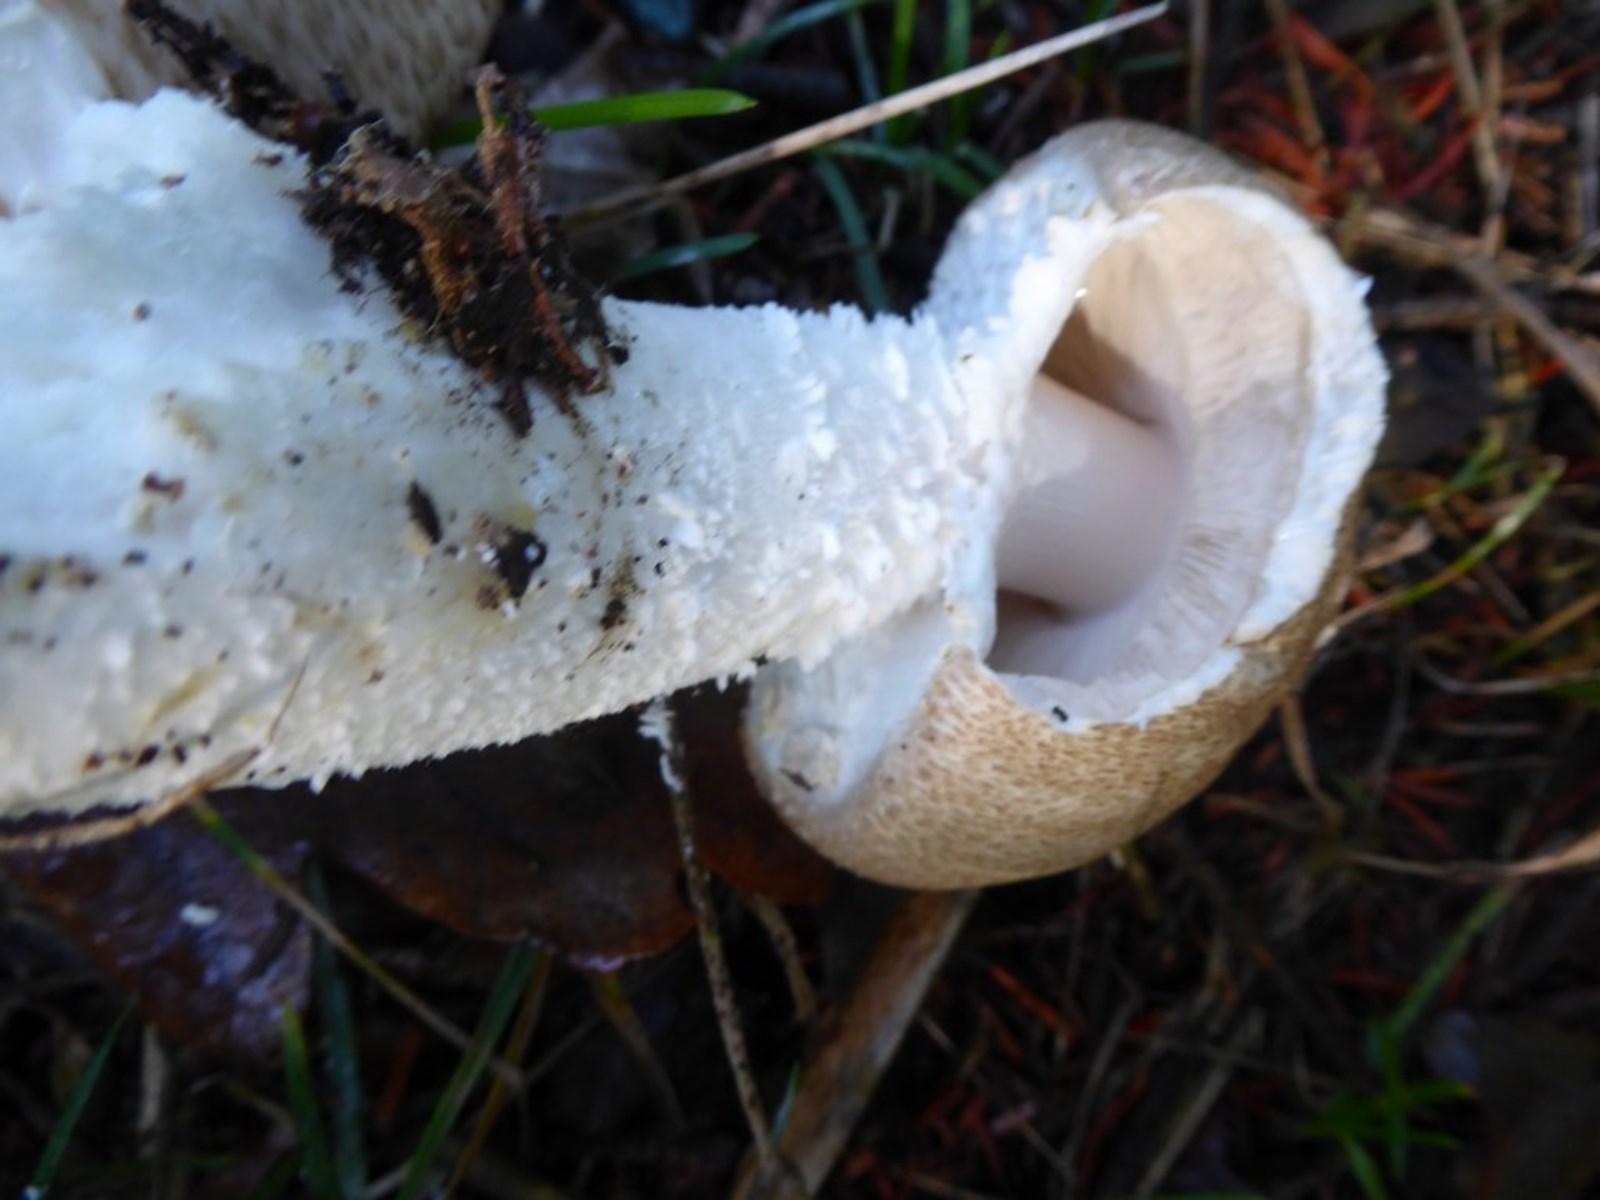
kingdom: Fungi
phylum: Basidiomycota
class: Agaricomycetes
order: Agaricales
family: Agaricaceae
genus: Agaricus
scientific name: Agaricus augustus
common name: prægtig champignon
